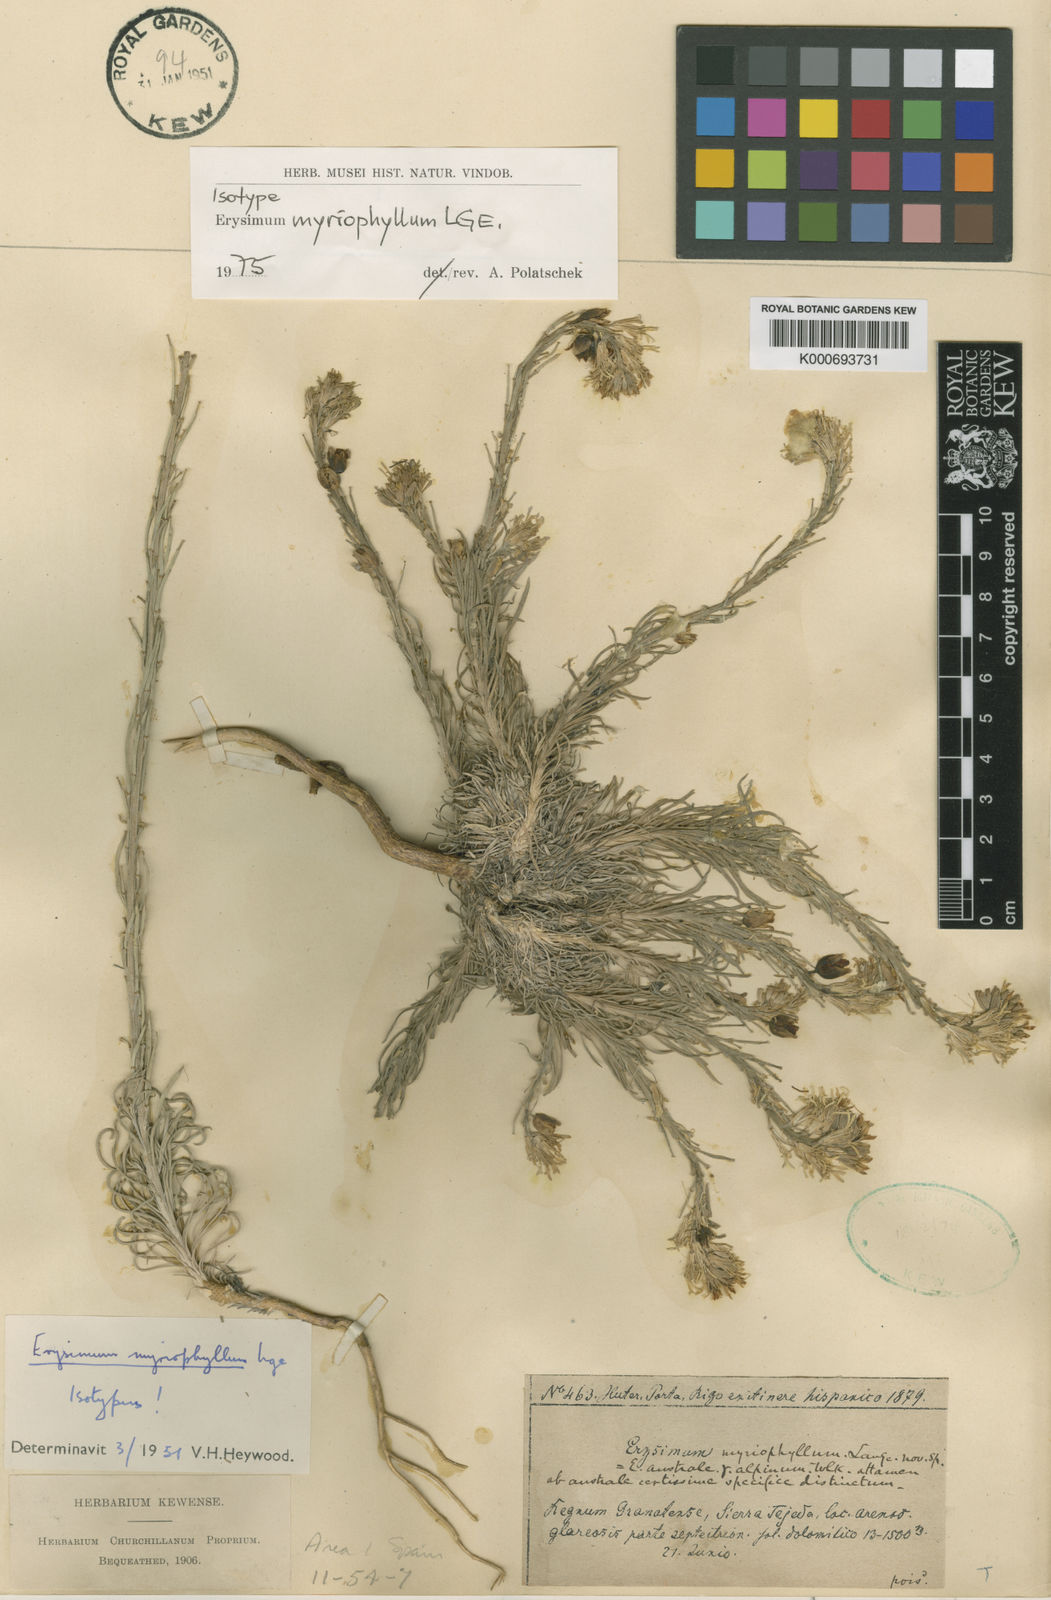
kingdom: Plantae
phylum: Tracheophyta
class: Magnoliopsida
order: Brassicales
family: Brassicaceae
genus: Erysimum
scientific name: Erysimum myriophyllum
